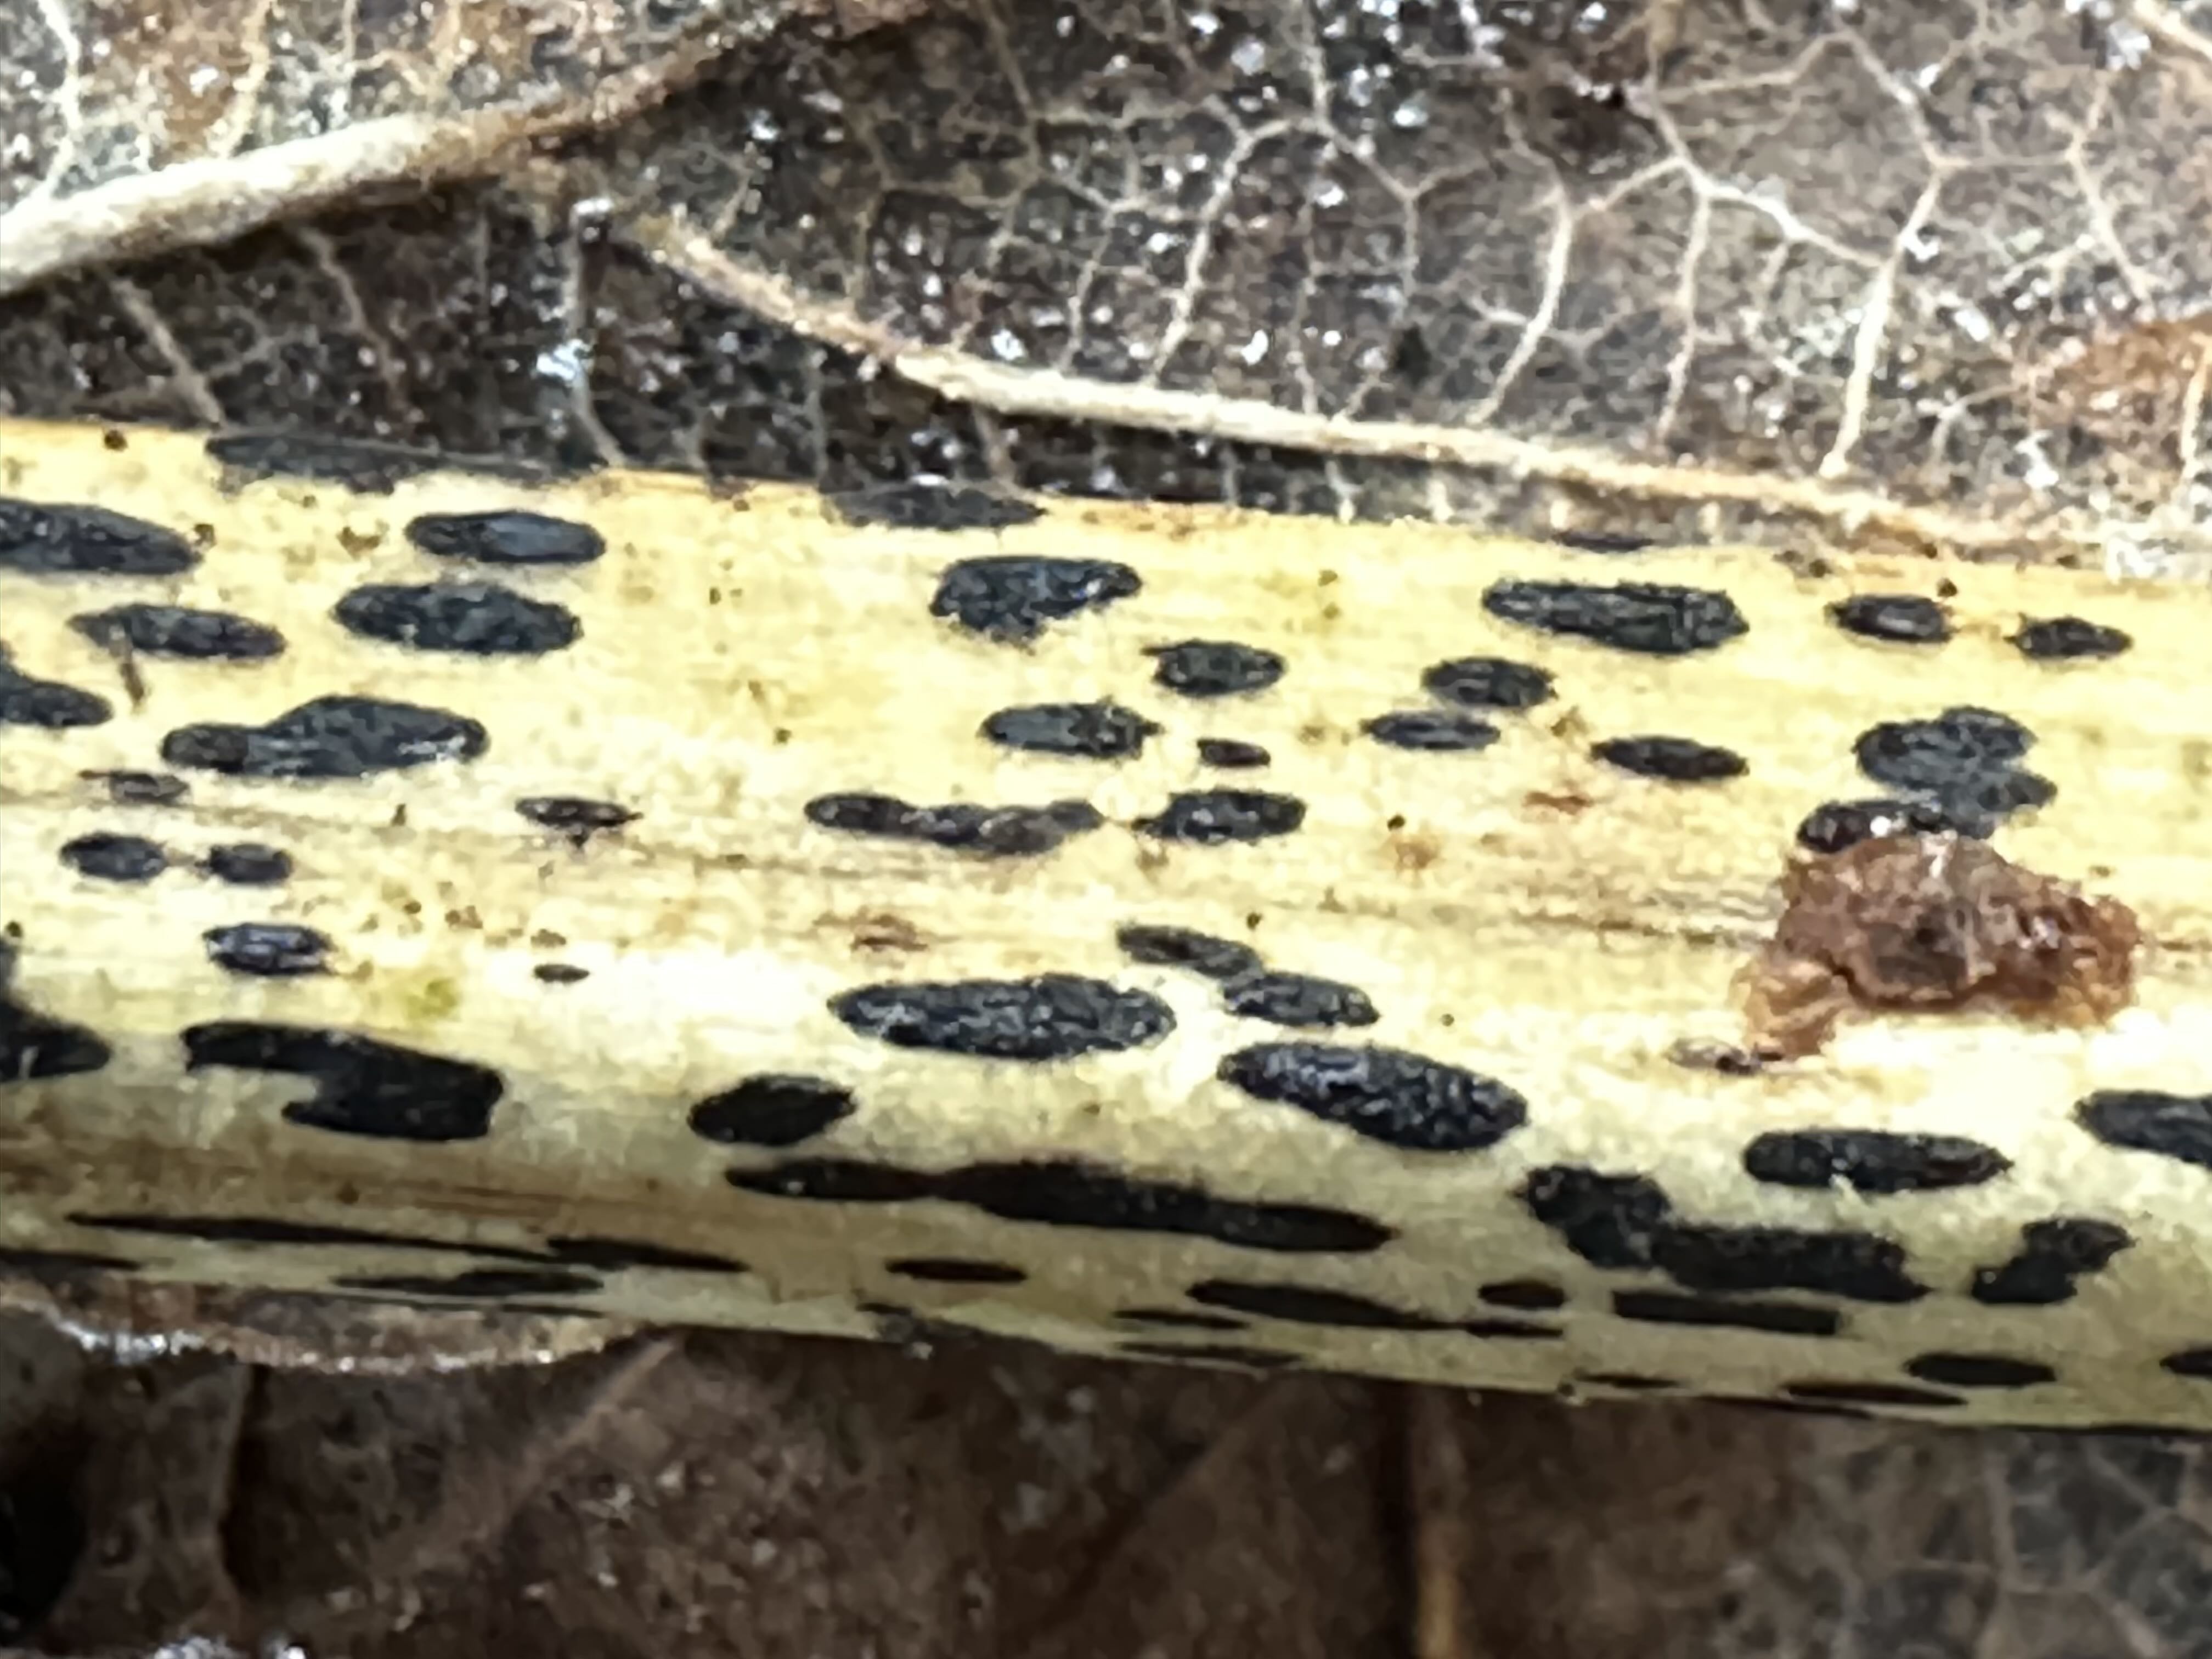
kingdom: Fungi
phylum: Ascomycota
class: Dothideomycetes
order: Pleosporales
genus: Rhopographus
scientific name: Rhopographus filicinus
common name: Bracken map
